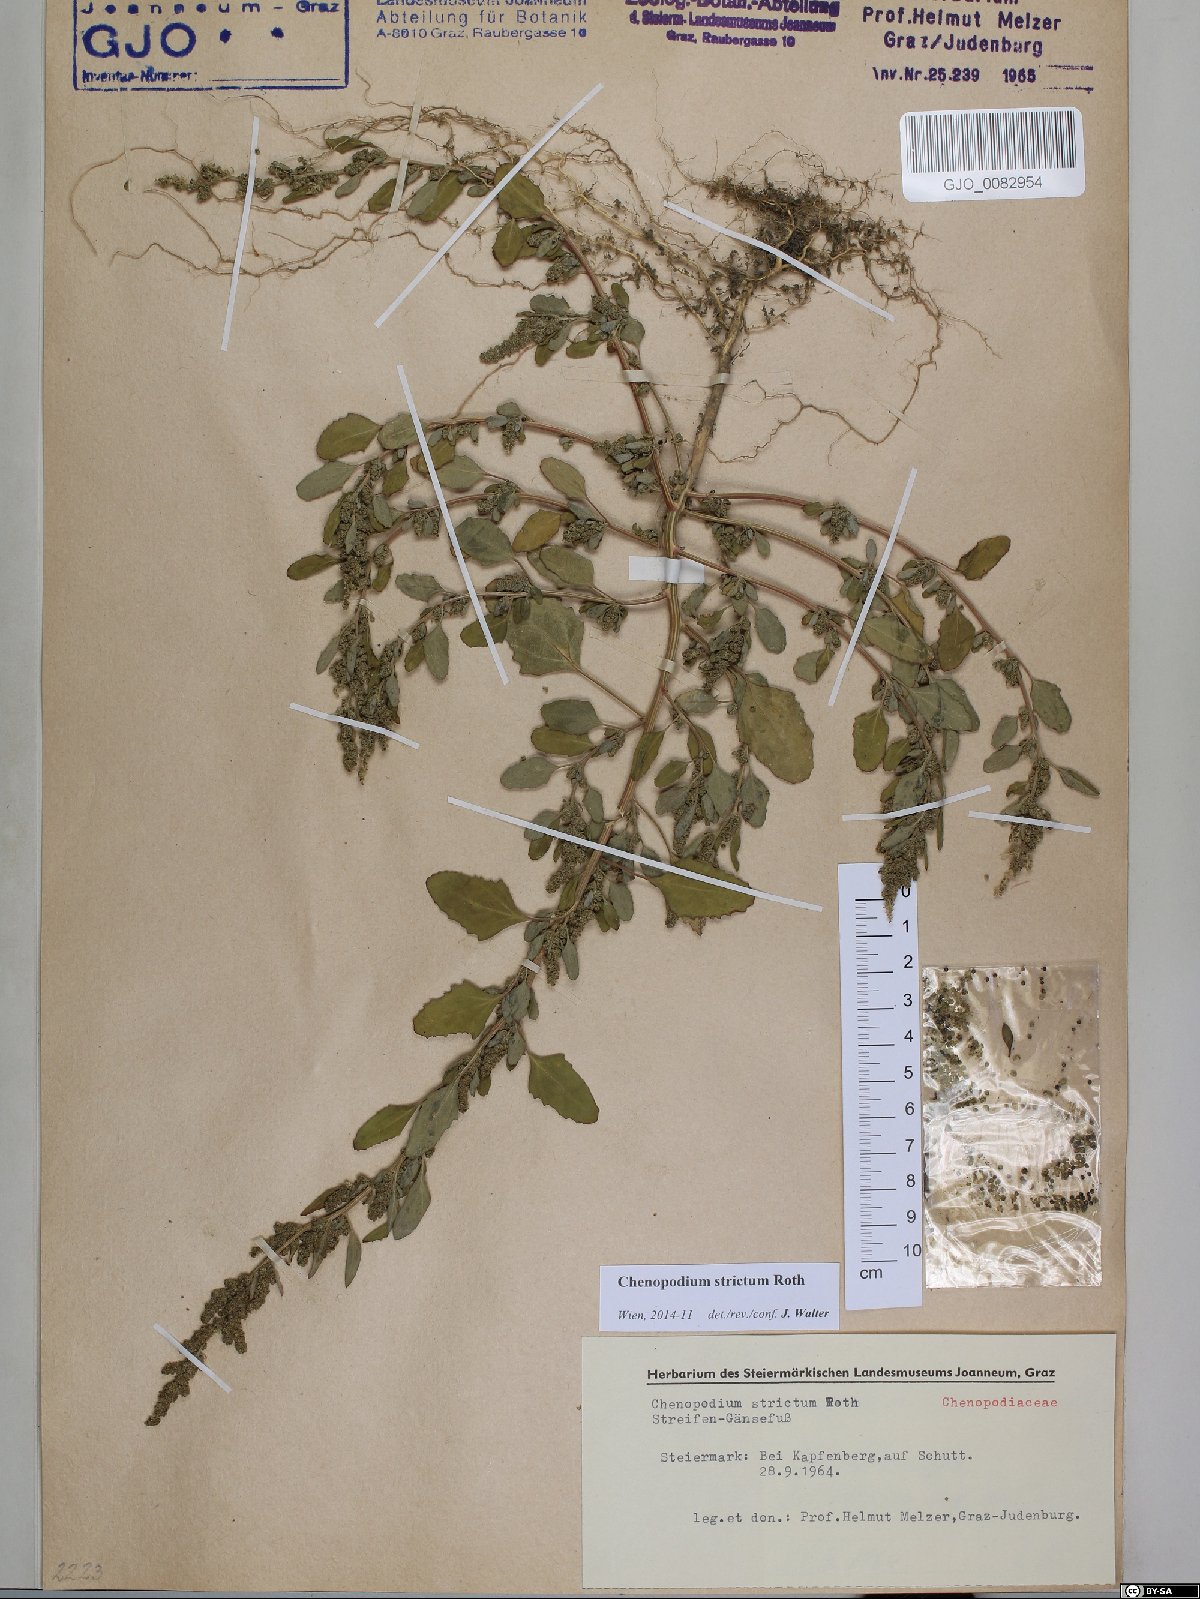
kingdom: Plantae
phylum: Tracheophyta
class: Magnoliopsida
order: Caryophyllales
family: Amaranthaceae
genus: Chenopodium
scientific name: Chenopodium album
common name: Fat-hen
